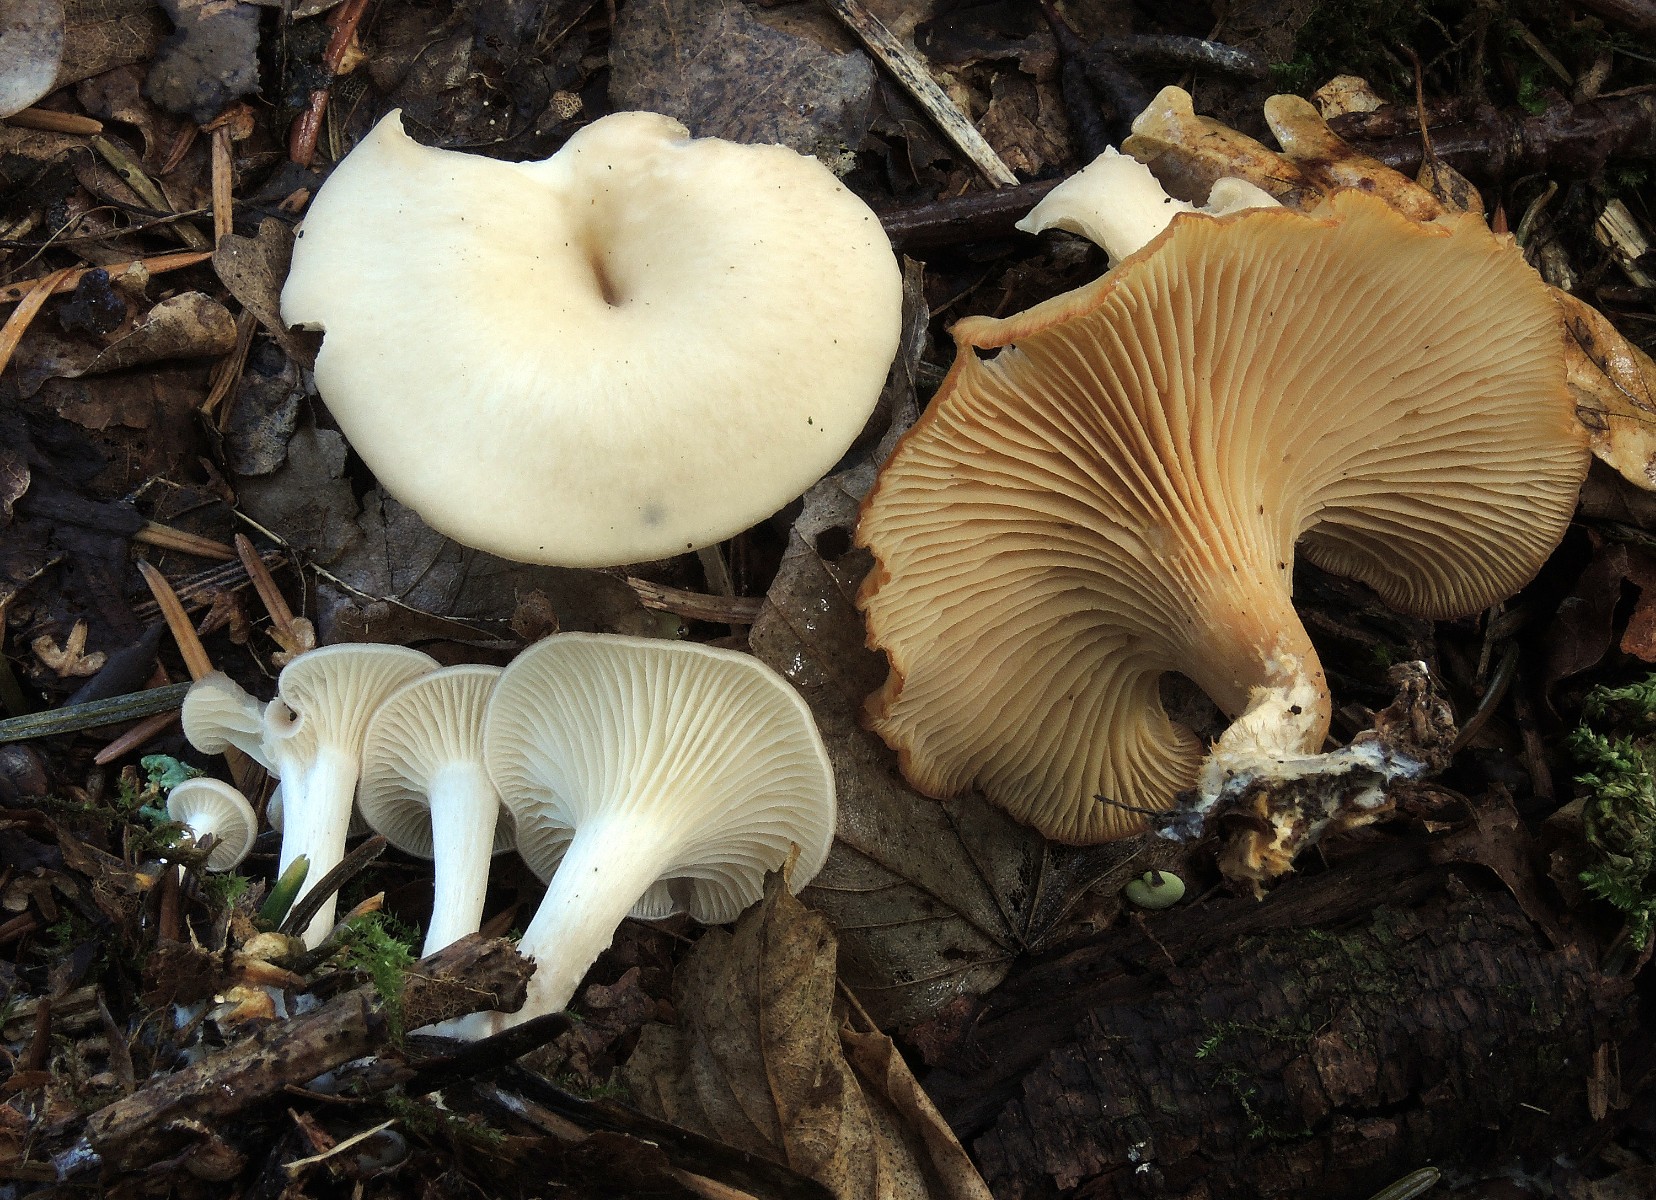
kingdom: Fungi
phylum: Basidiomycota
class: Agaricomycetes
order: Agaricales
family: Tricholomataceae
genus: Clitocybe
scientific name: Clitocybe phaeophthalma
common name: stinkende tragthat
